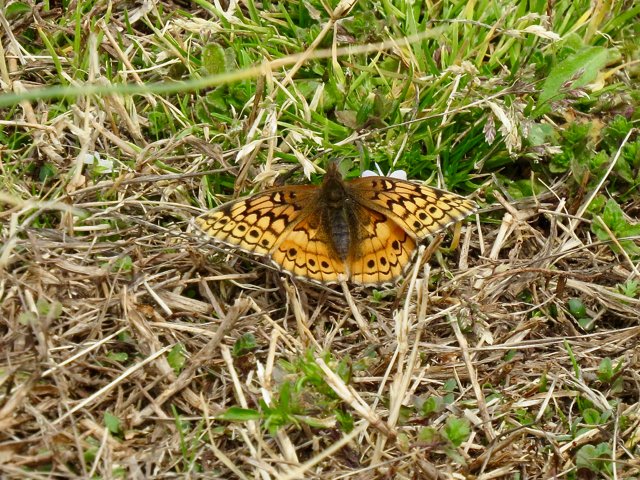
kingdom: Animalia
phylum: Arthropoda
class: Insecta
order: Lepidoptera
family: Nymphalidae
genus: Euptoieta
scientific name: Euptoieta claudia
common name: Variegated Fritillary
